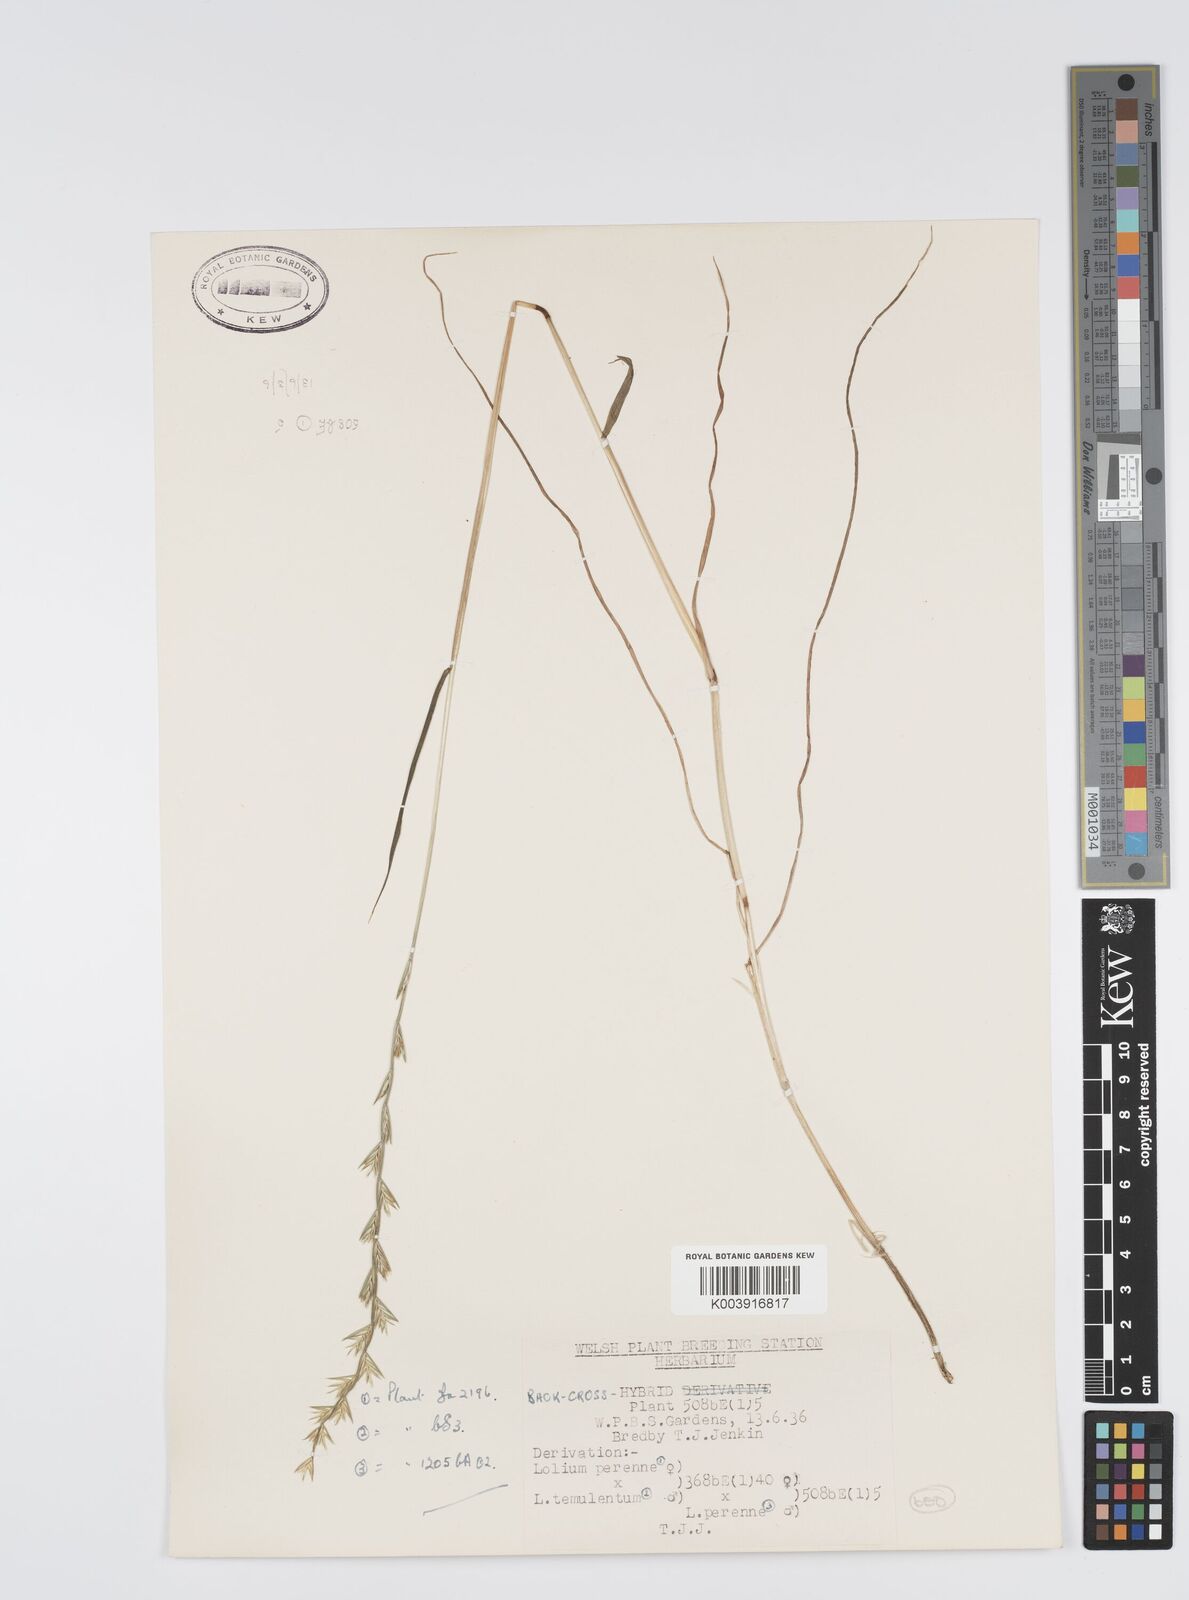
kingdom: Plantae
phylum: Tracheophyta
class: Liliopsida
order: Poales
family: Poaceae
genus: Lolium
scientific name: Lolium perenne
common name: Perennial ryegrass
